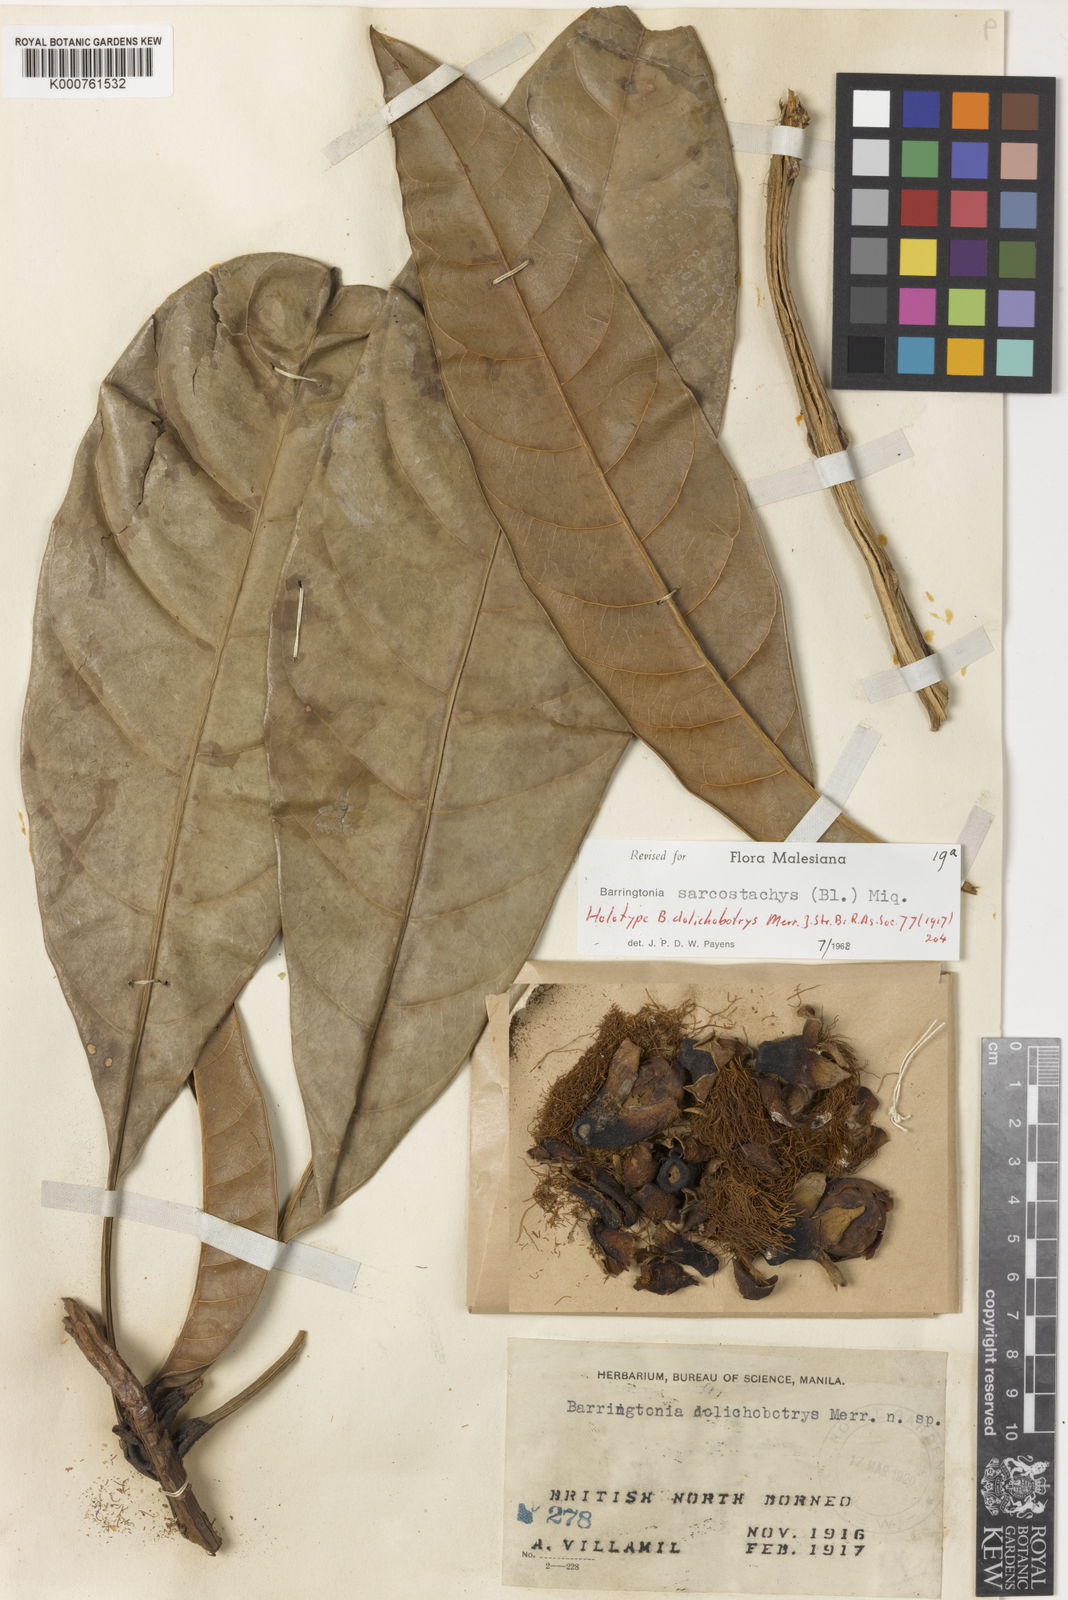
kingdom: Plantae
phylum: Tracheophyta
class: Magnoliopsida
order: Ericales
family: Lecythidaceae
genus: Barringtonia
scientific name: Barringtonia sarcostachys
